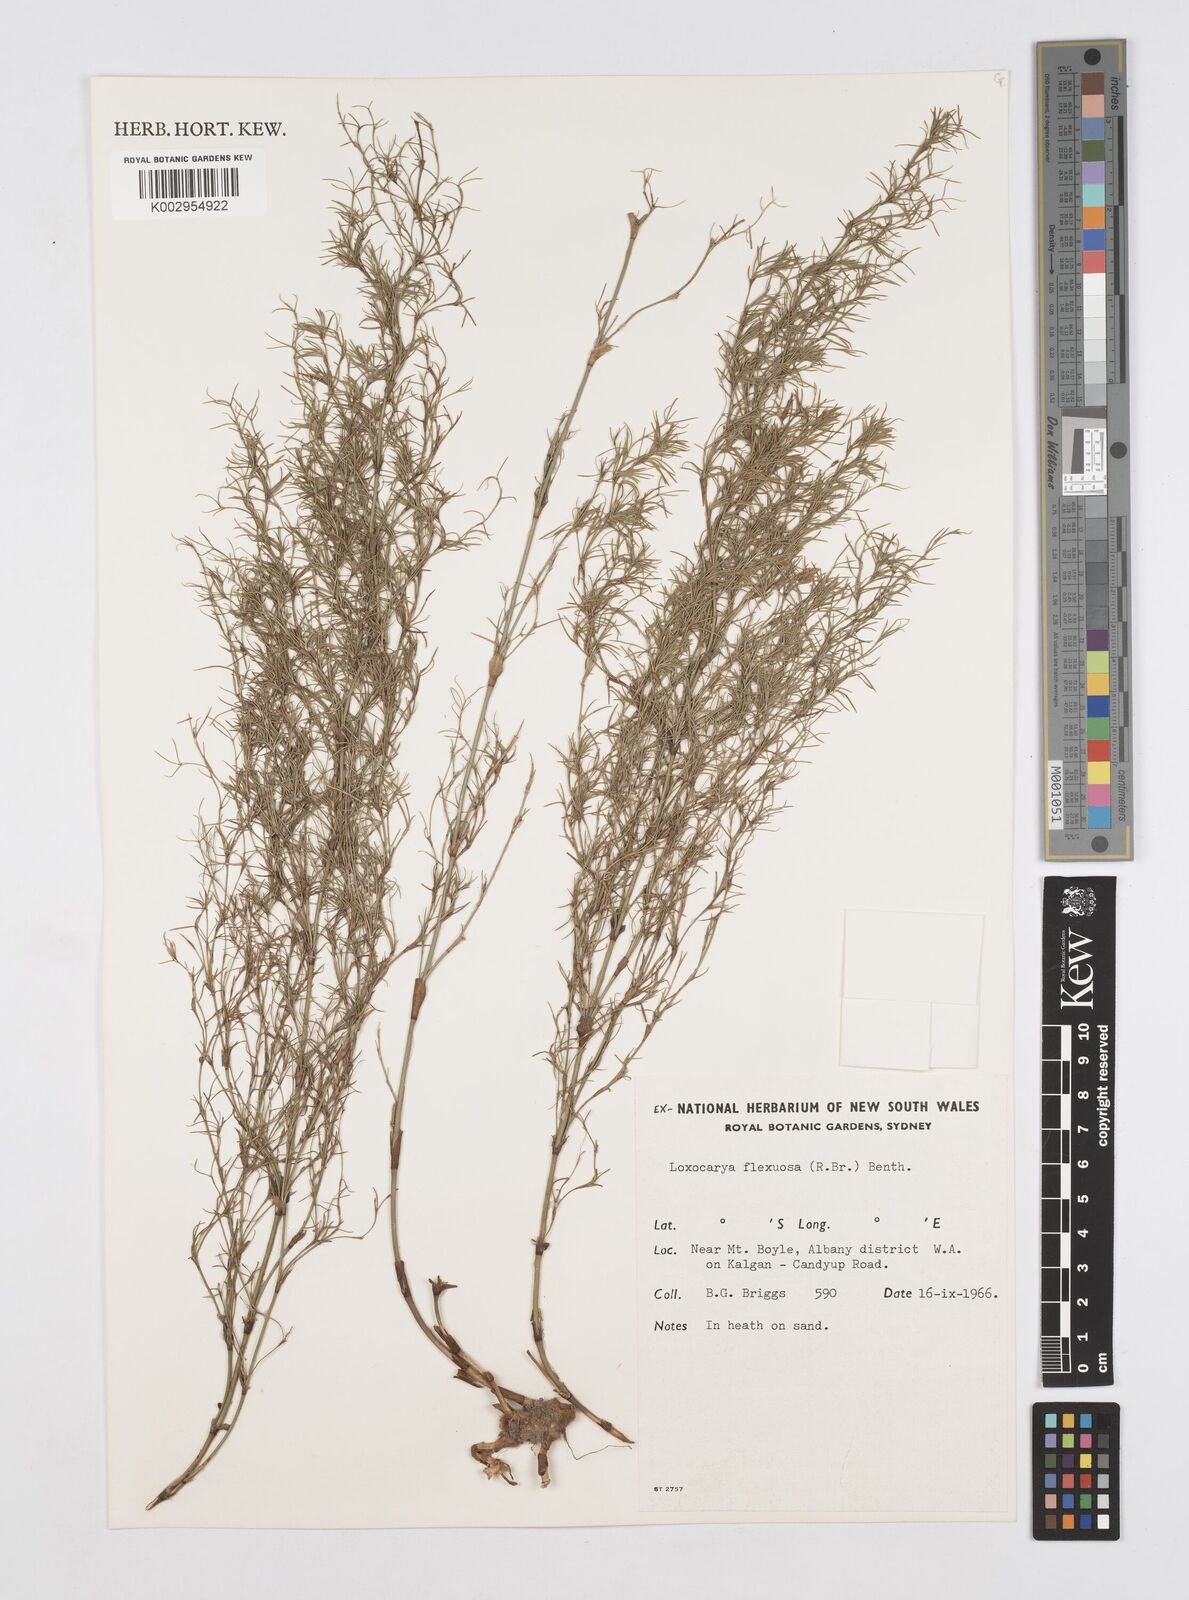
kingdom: Plantae
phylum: Tracheophyta
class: Liliopsida
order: Poales
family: Restionaceae
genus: Desmocladus
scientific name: Desmocladus flexuosus
